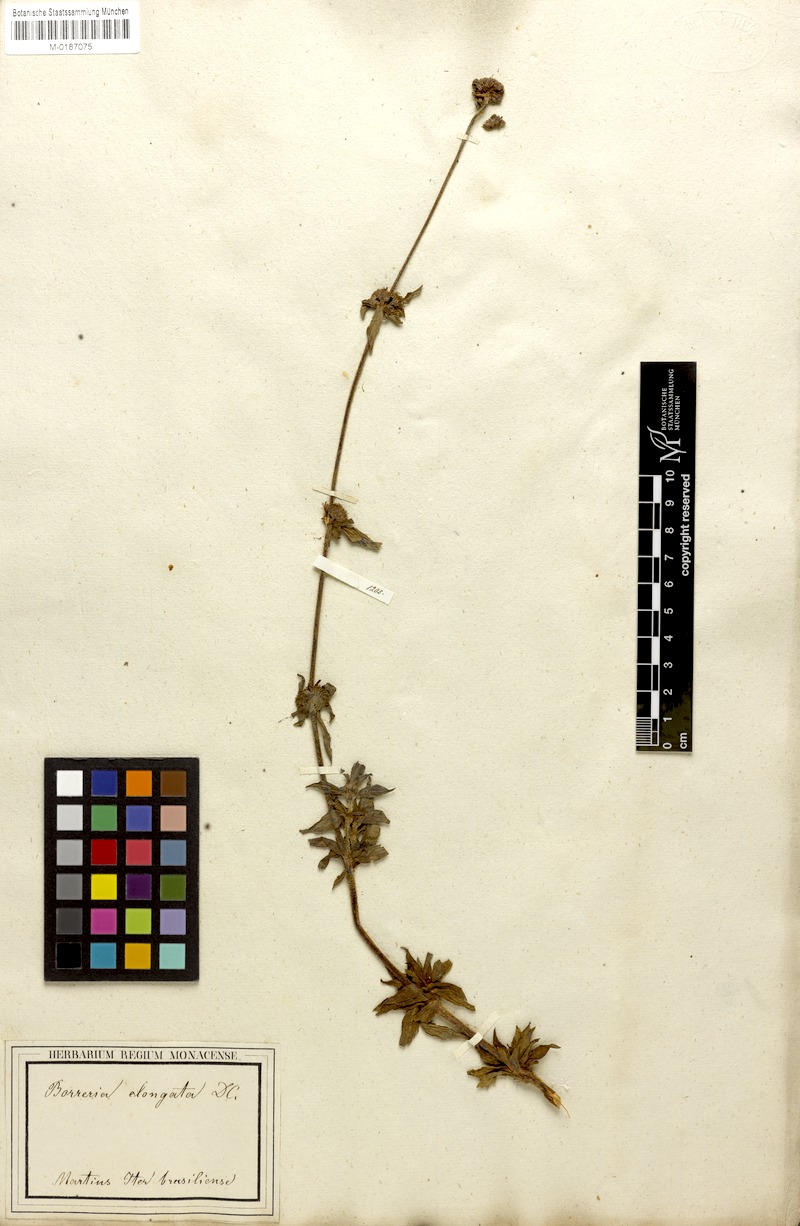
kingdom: Plantae
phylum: Tracheophyta
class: Magnoliopsida
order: Gentianales
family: Rubiaceae
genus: Spermacoce
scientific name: Spermacoce capitata
